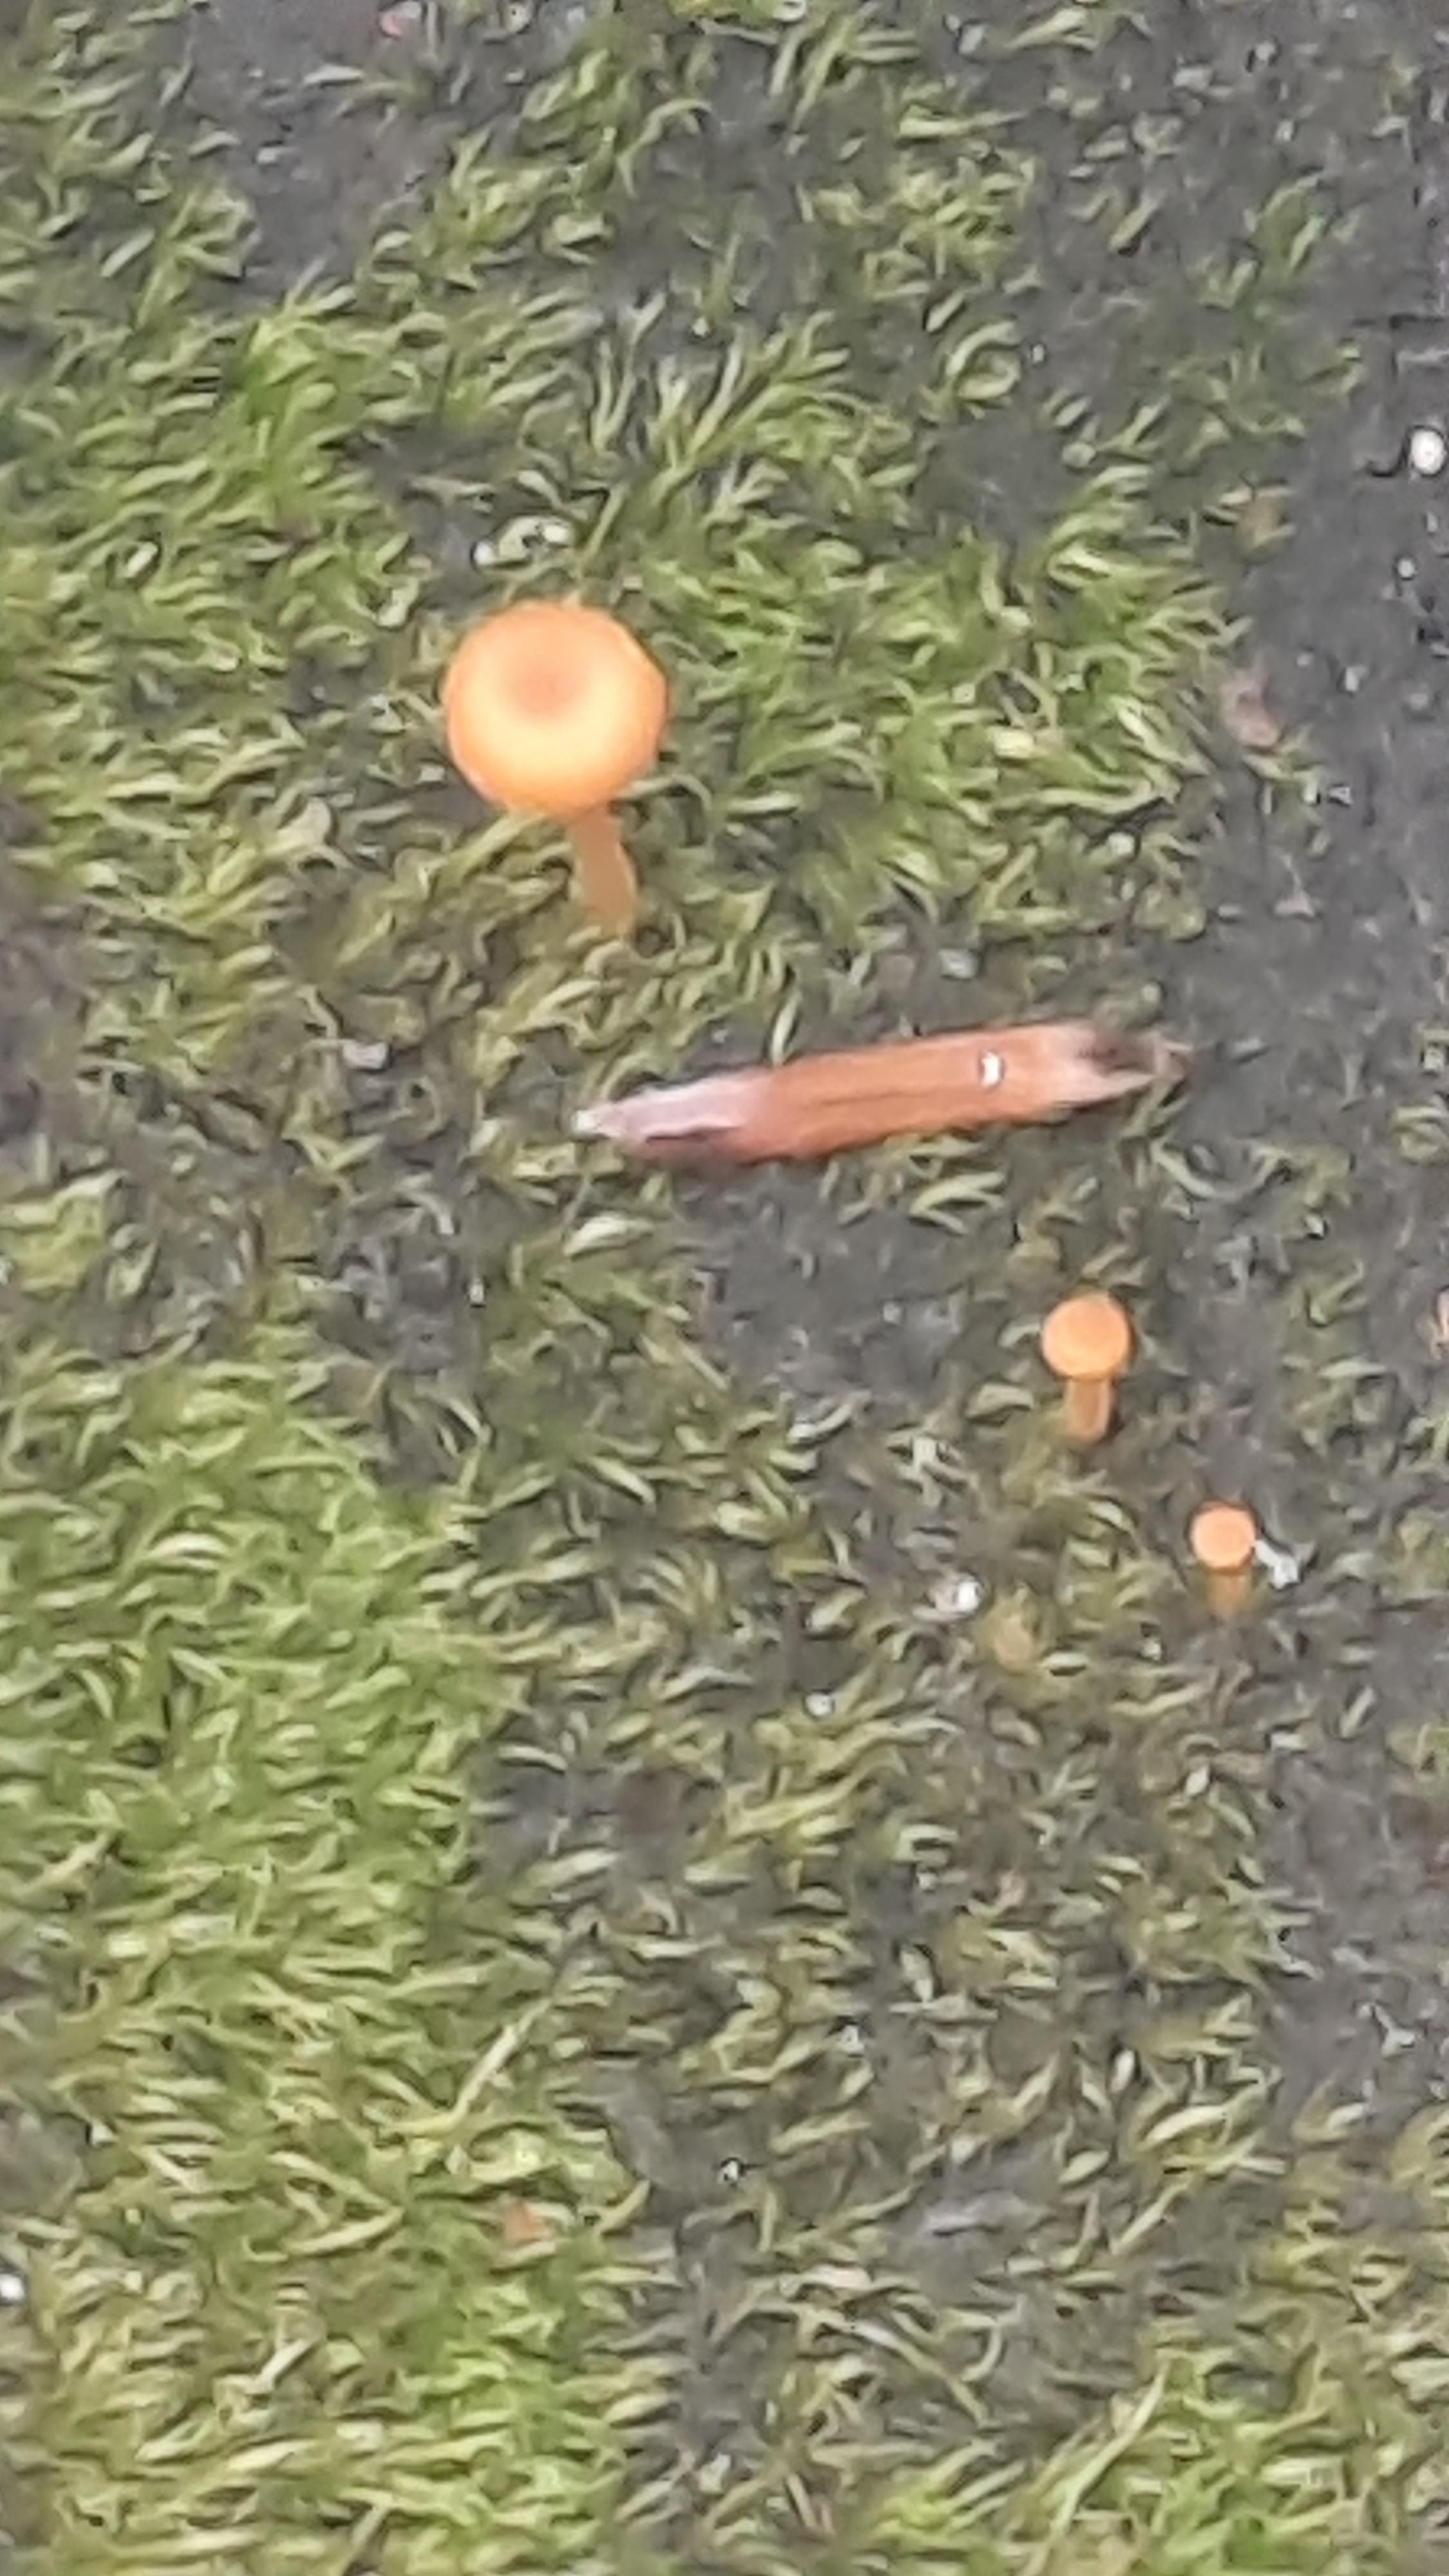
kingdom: Fungi
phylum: Basidiomycota
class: Agaricomycetes
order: Hymenochaetales
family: Rickenellaceae
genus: Rickenella
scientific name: Rickenella fibula
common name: orange mosnavlehat
